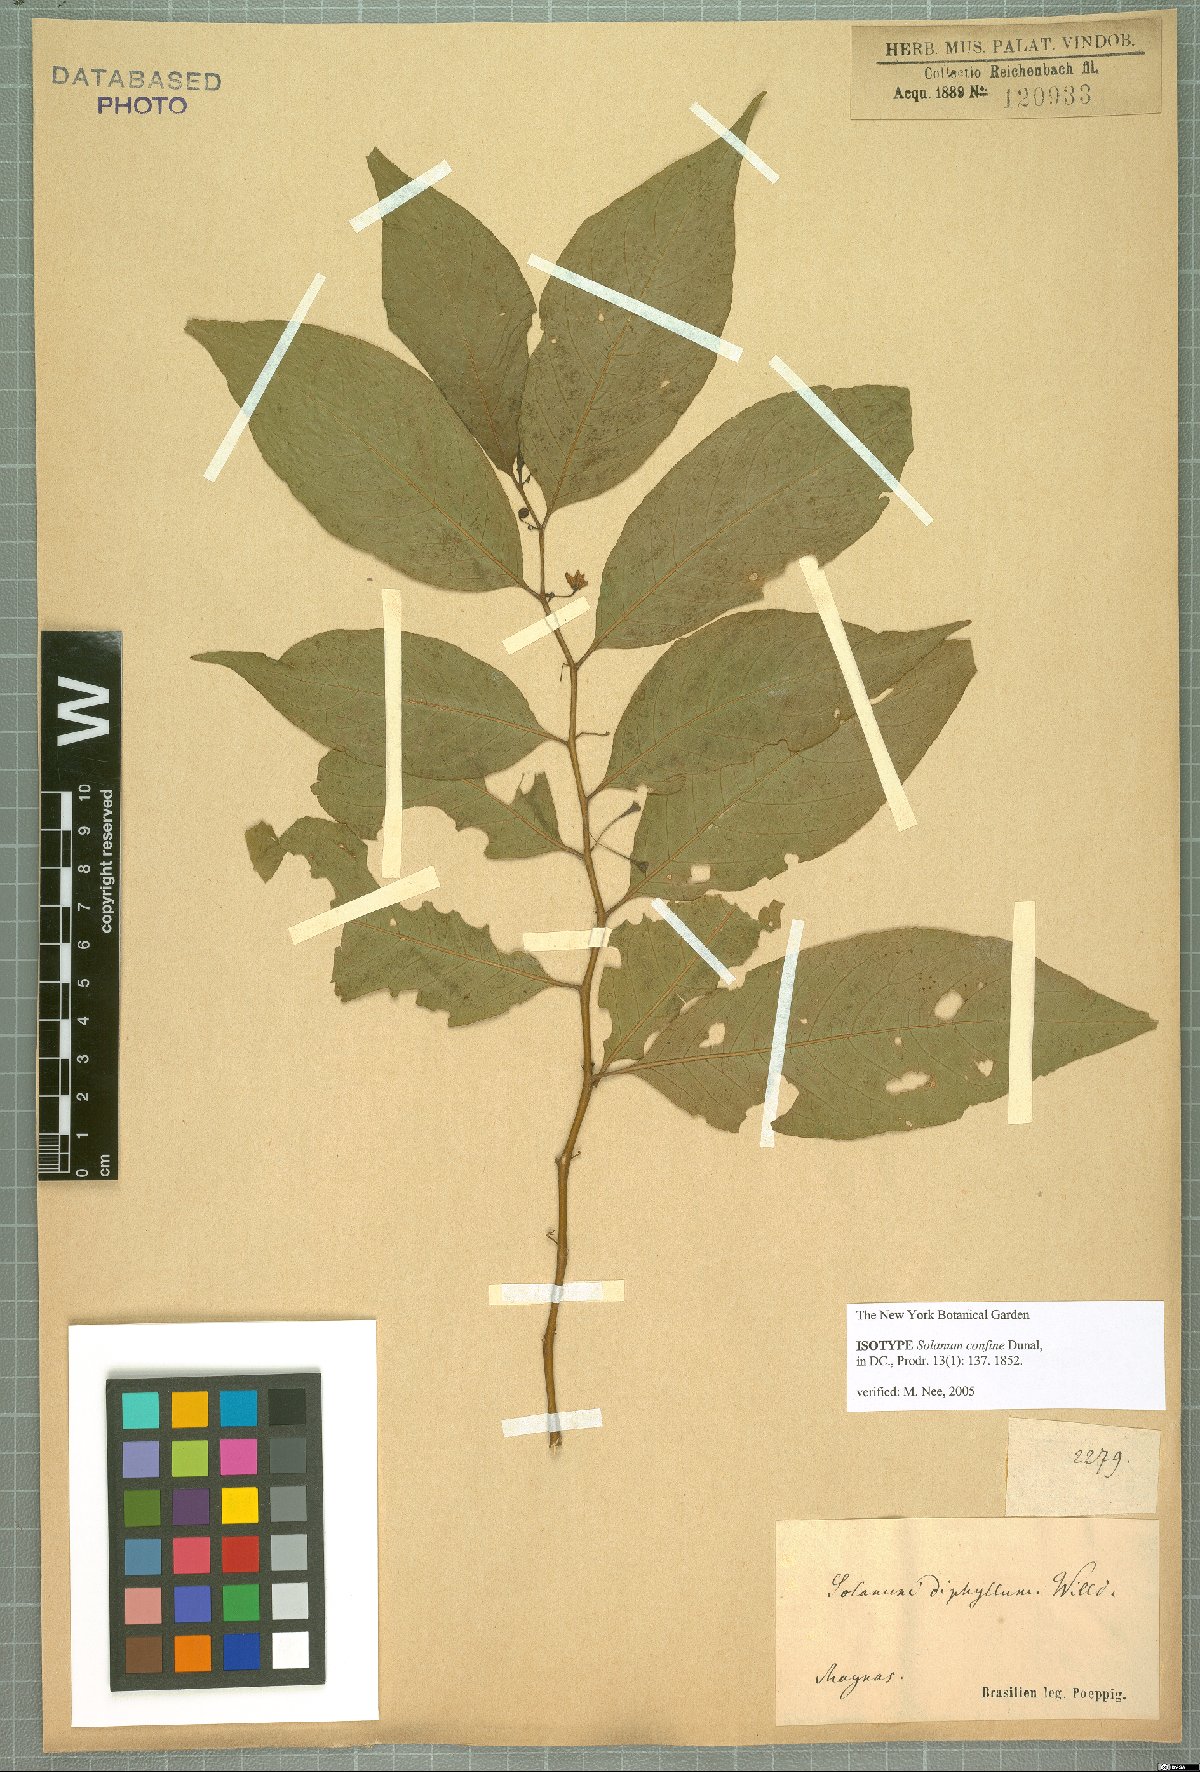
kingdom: Plantae
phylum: Tracheophyta
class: Magnoliopsida
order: Solanales
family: Solanaceae
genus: Solanum
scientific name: Solanum confine
